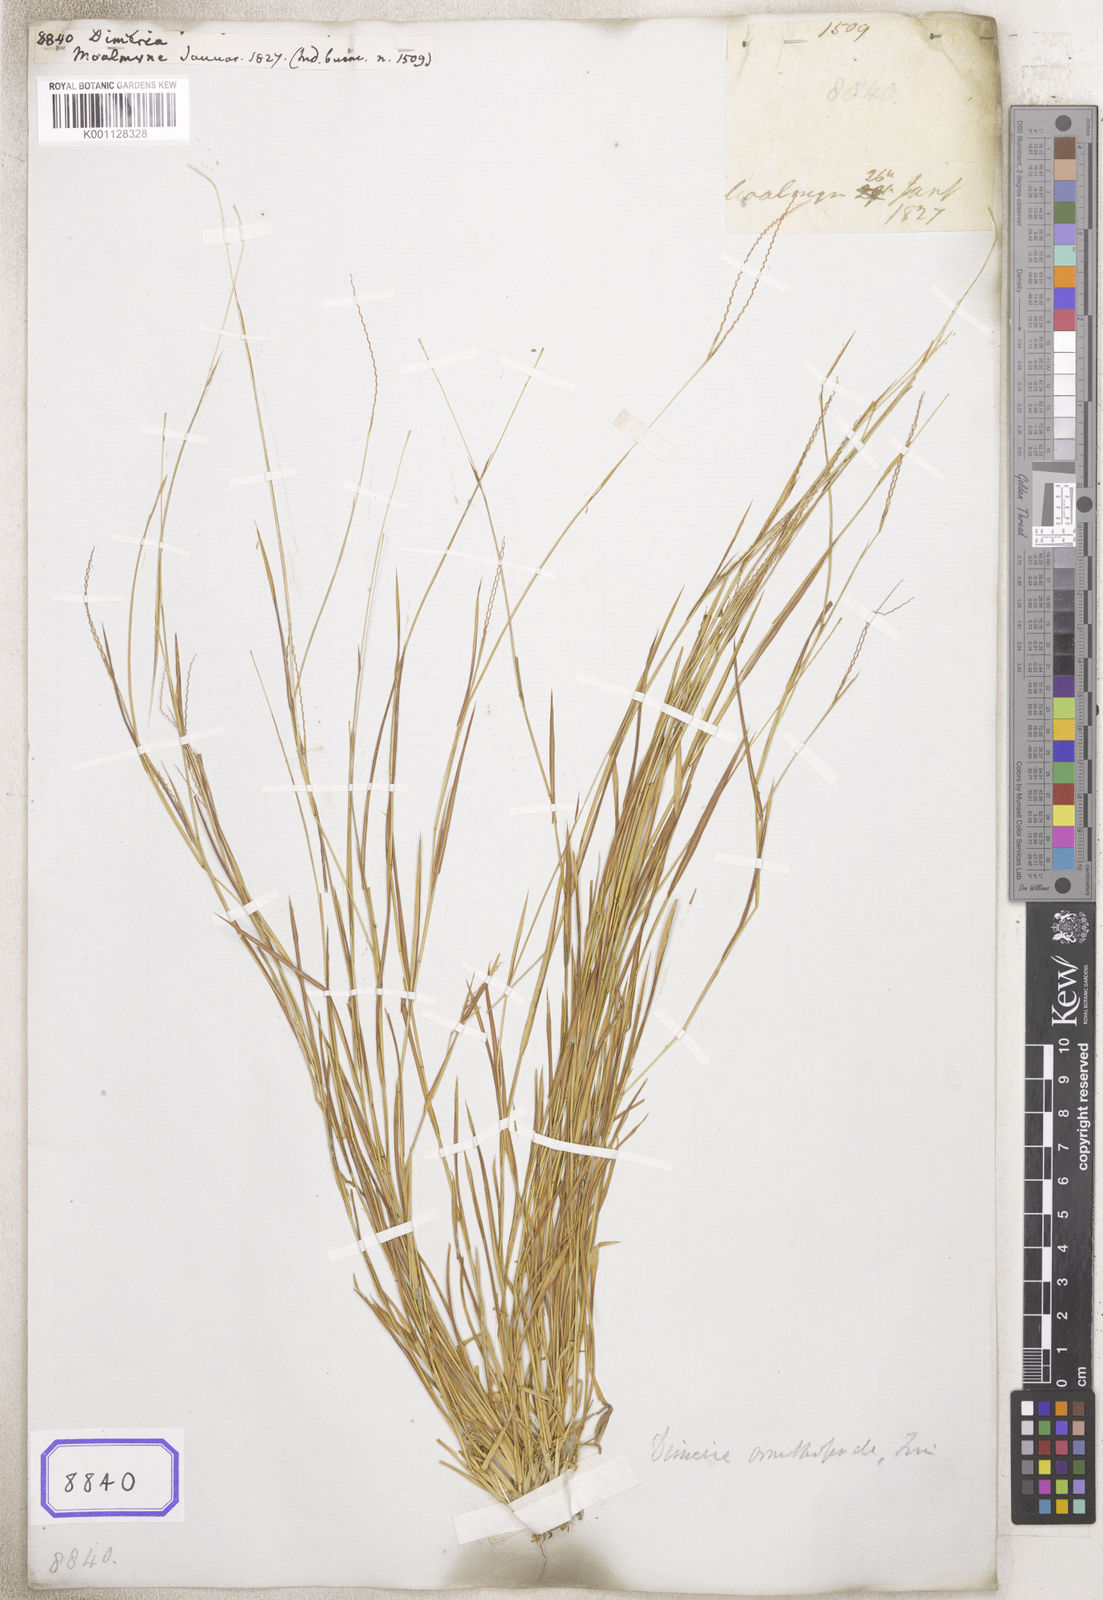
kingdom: Plantae
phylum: Tracheophyta
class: Liliopsida
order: Poales
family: Poaceae
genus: Dimeria
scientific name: Dimeria
